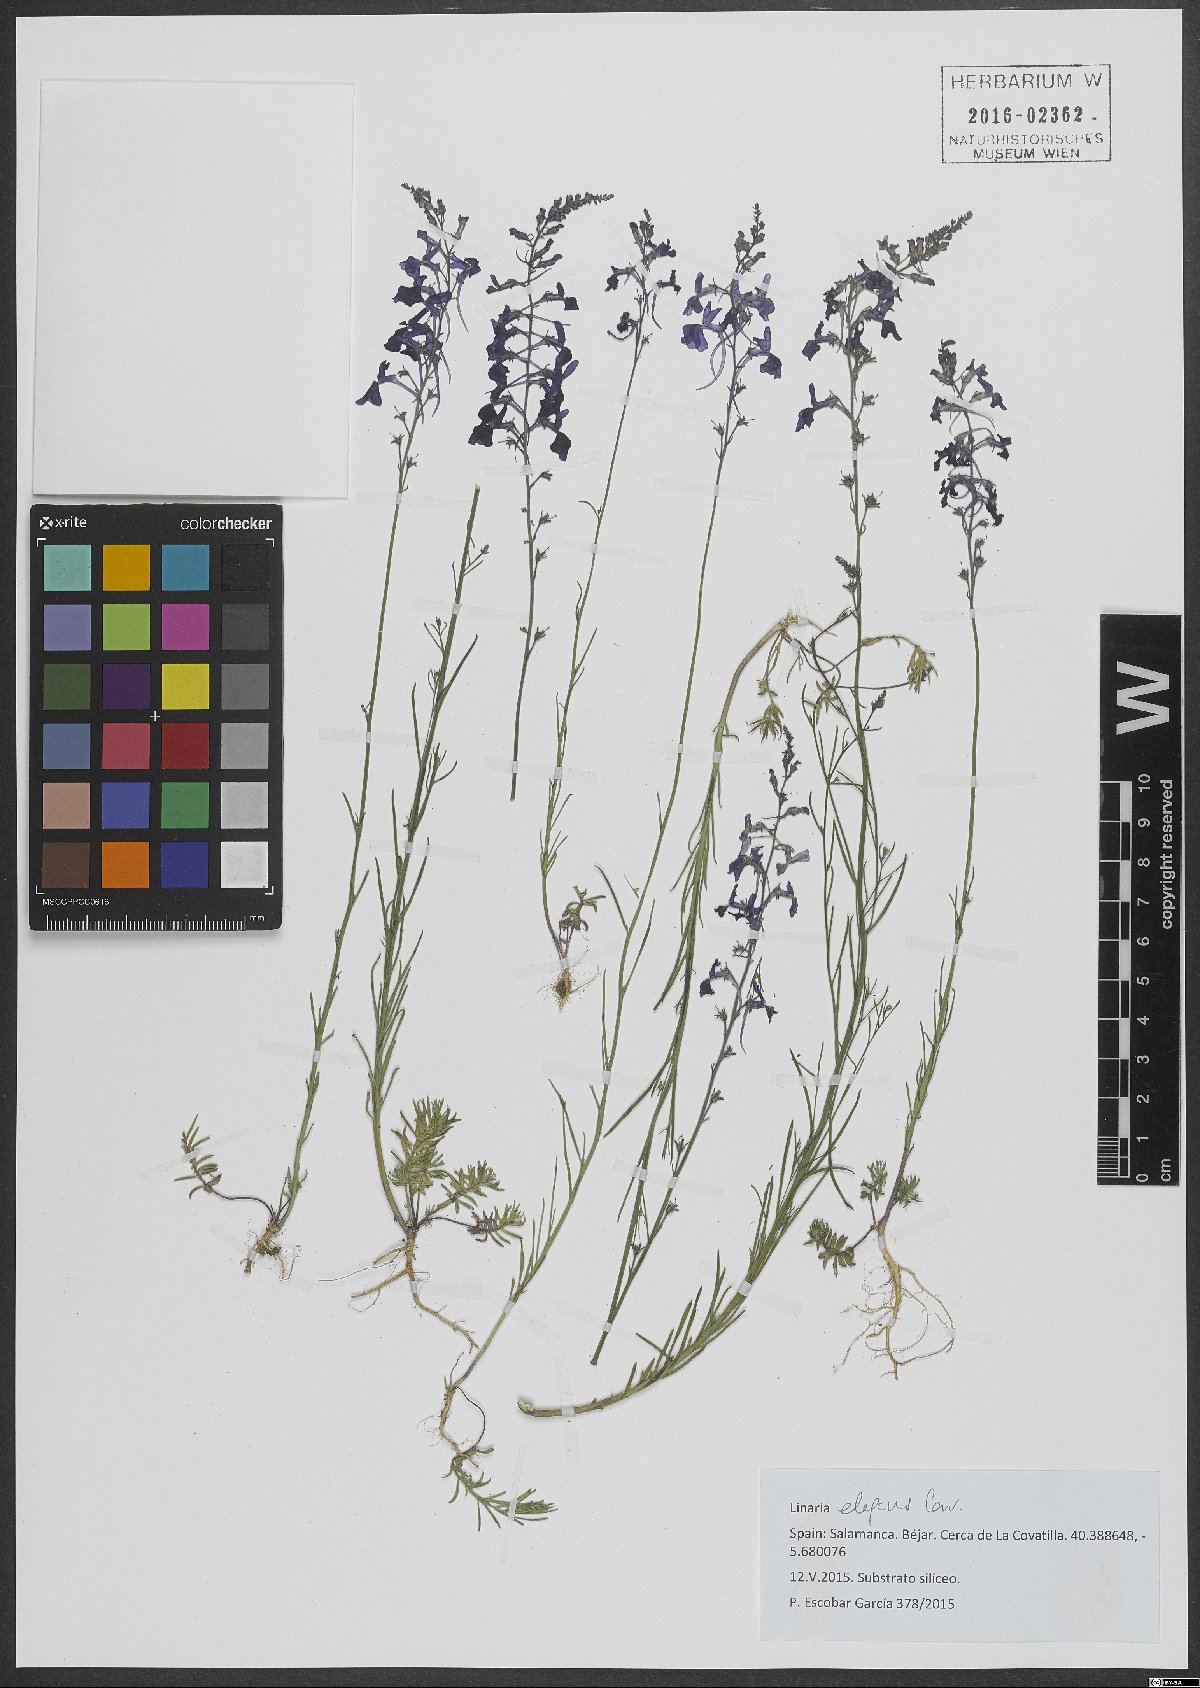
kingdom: Plantae
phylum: Tracheophyta
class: Magnoliopsida
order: Lamiales
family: Plantaginaceae
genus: Linaria
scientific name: Linaria elegans
